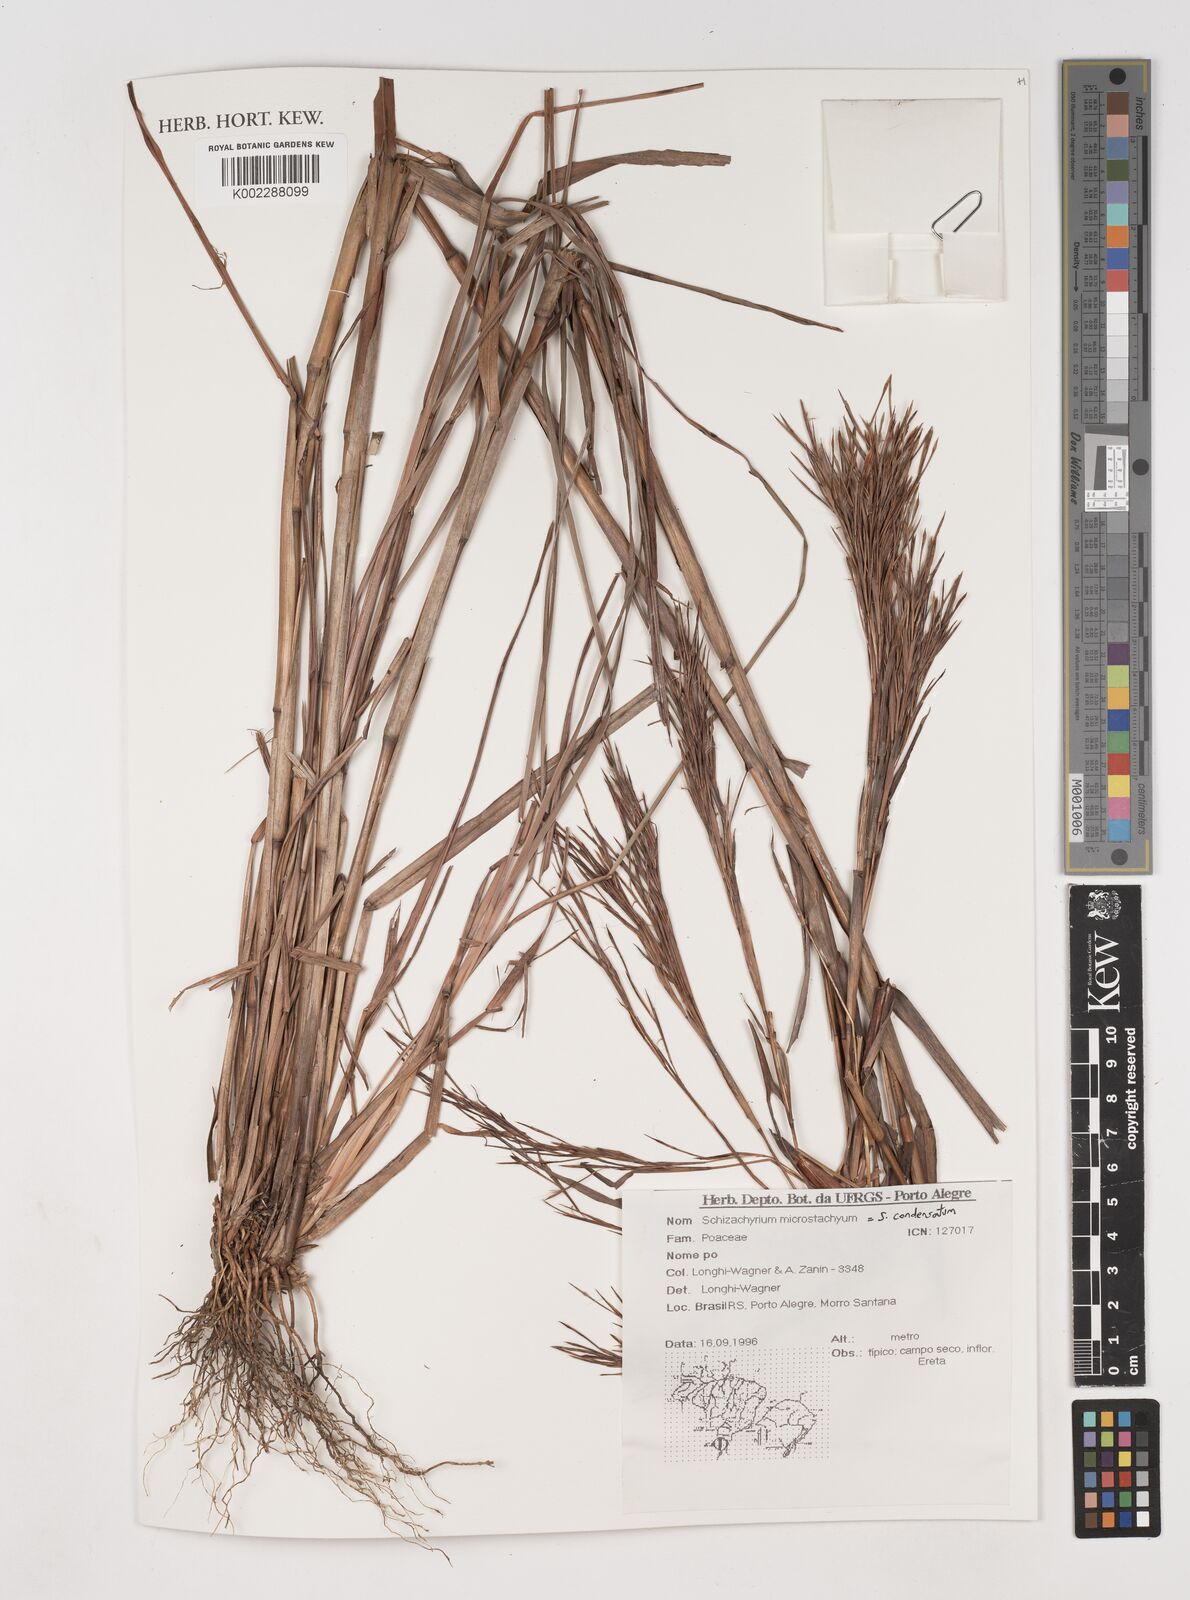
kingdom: Plantae
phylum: Tracheophyta
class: Liliopsida
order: Poales
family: Poaceae
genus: Schizachyrium
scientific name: Schizachyrium condensatum
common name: Bush beardgrass
